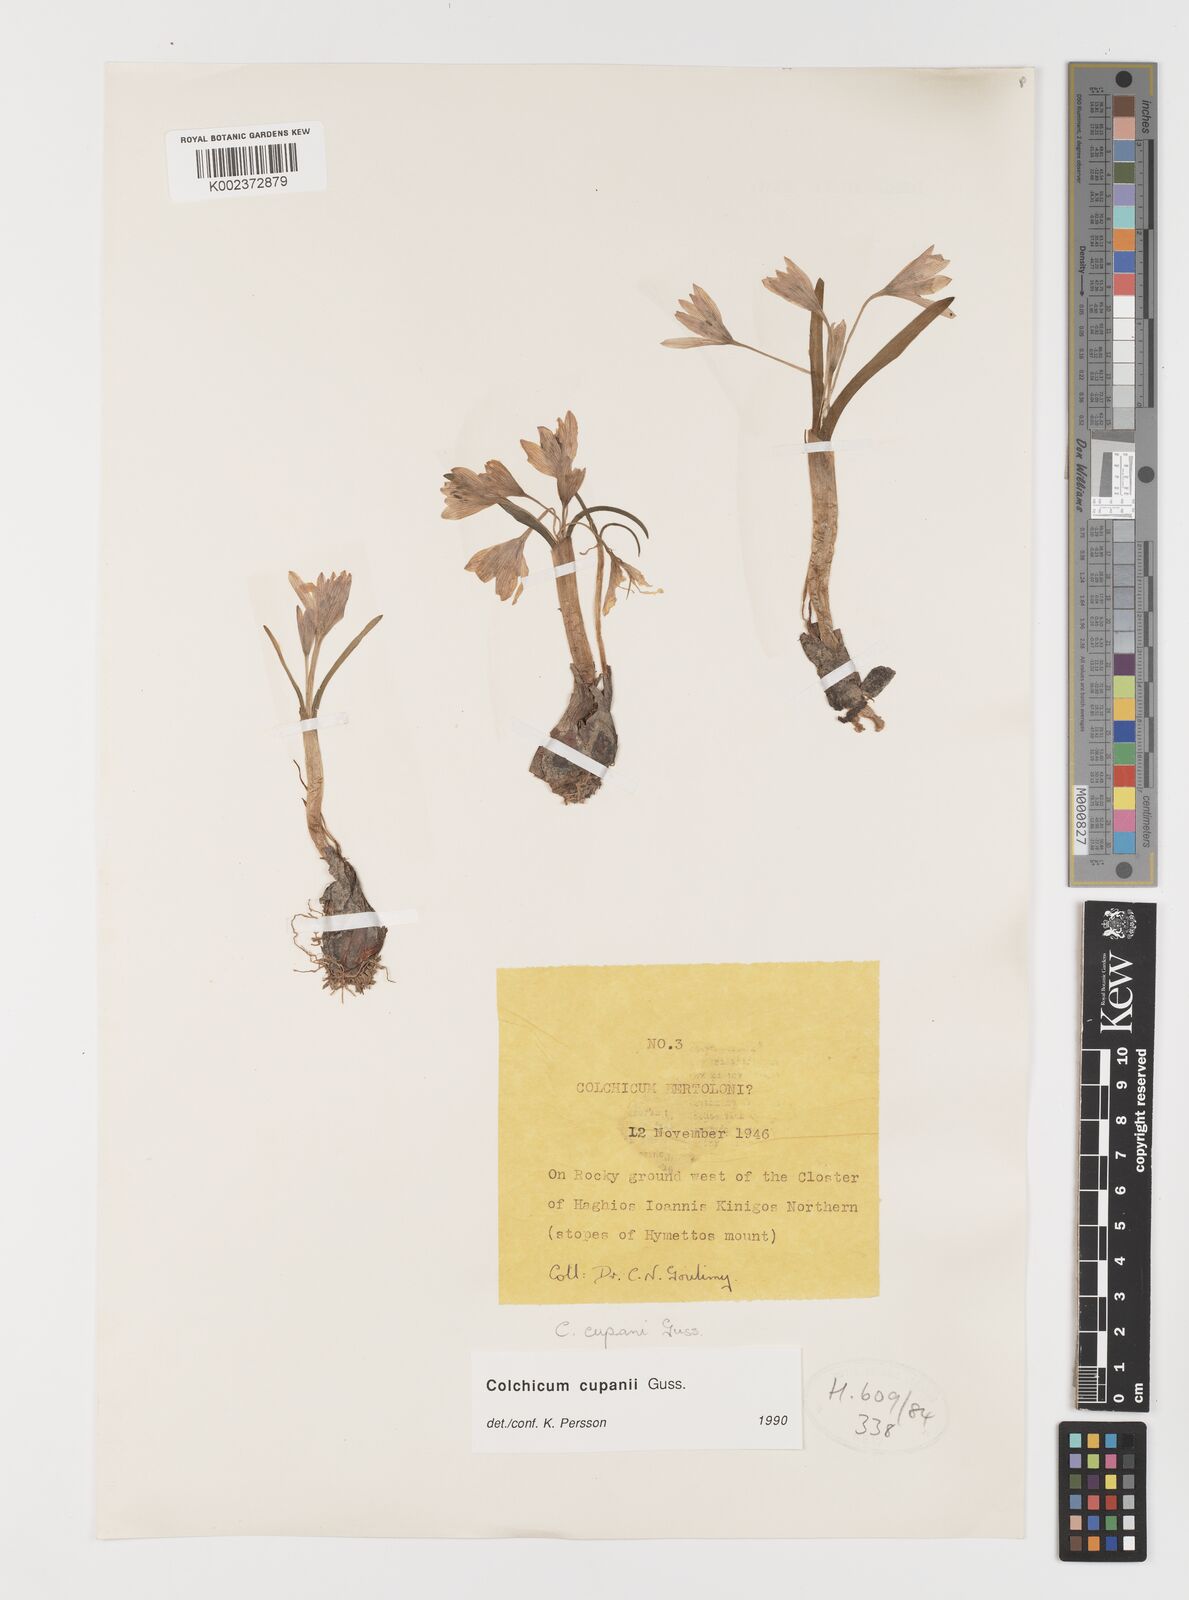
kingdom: Plantae
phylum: Tracheophyta
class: Liliopsida
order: Liliales
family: Colchicaceae
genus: Colchicum
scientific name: Colchicum cupanii
